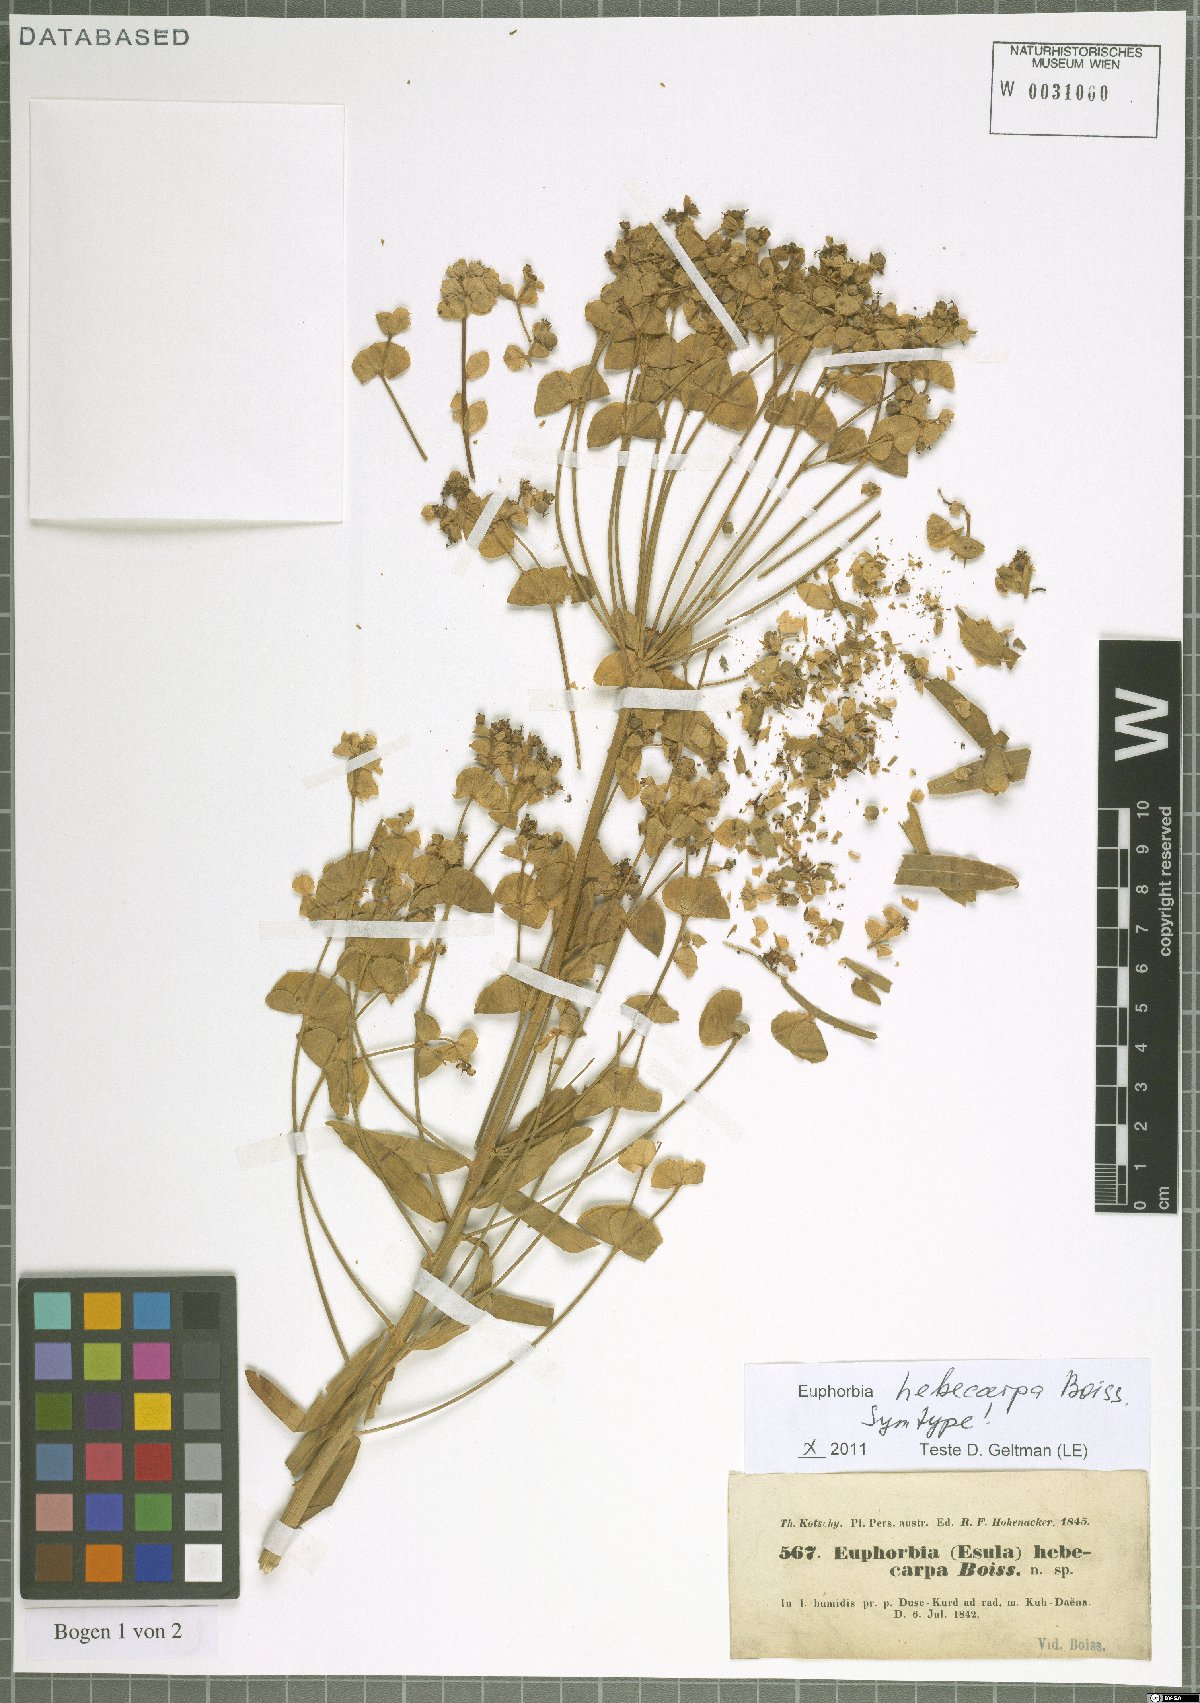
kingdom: Plantae
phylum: Tracheophyta
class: Magnoliopsida
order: Malpighiales
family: Euphorbiaceae
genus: Euphorbia
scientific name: Euphorbia hebecarpa
